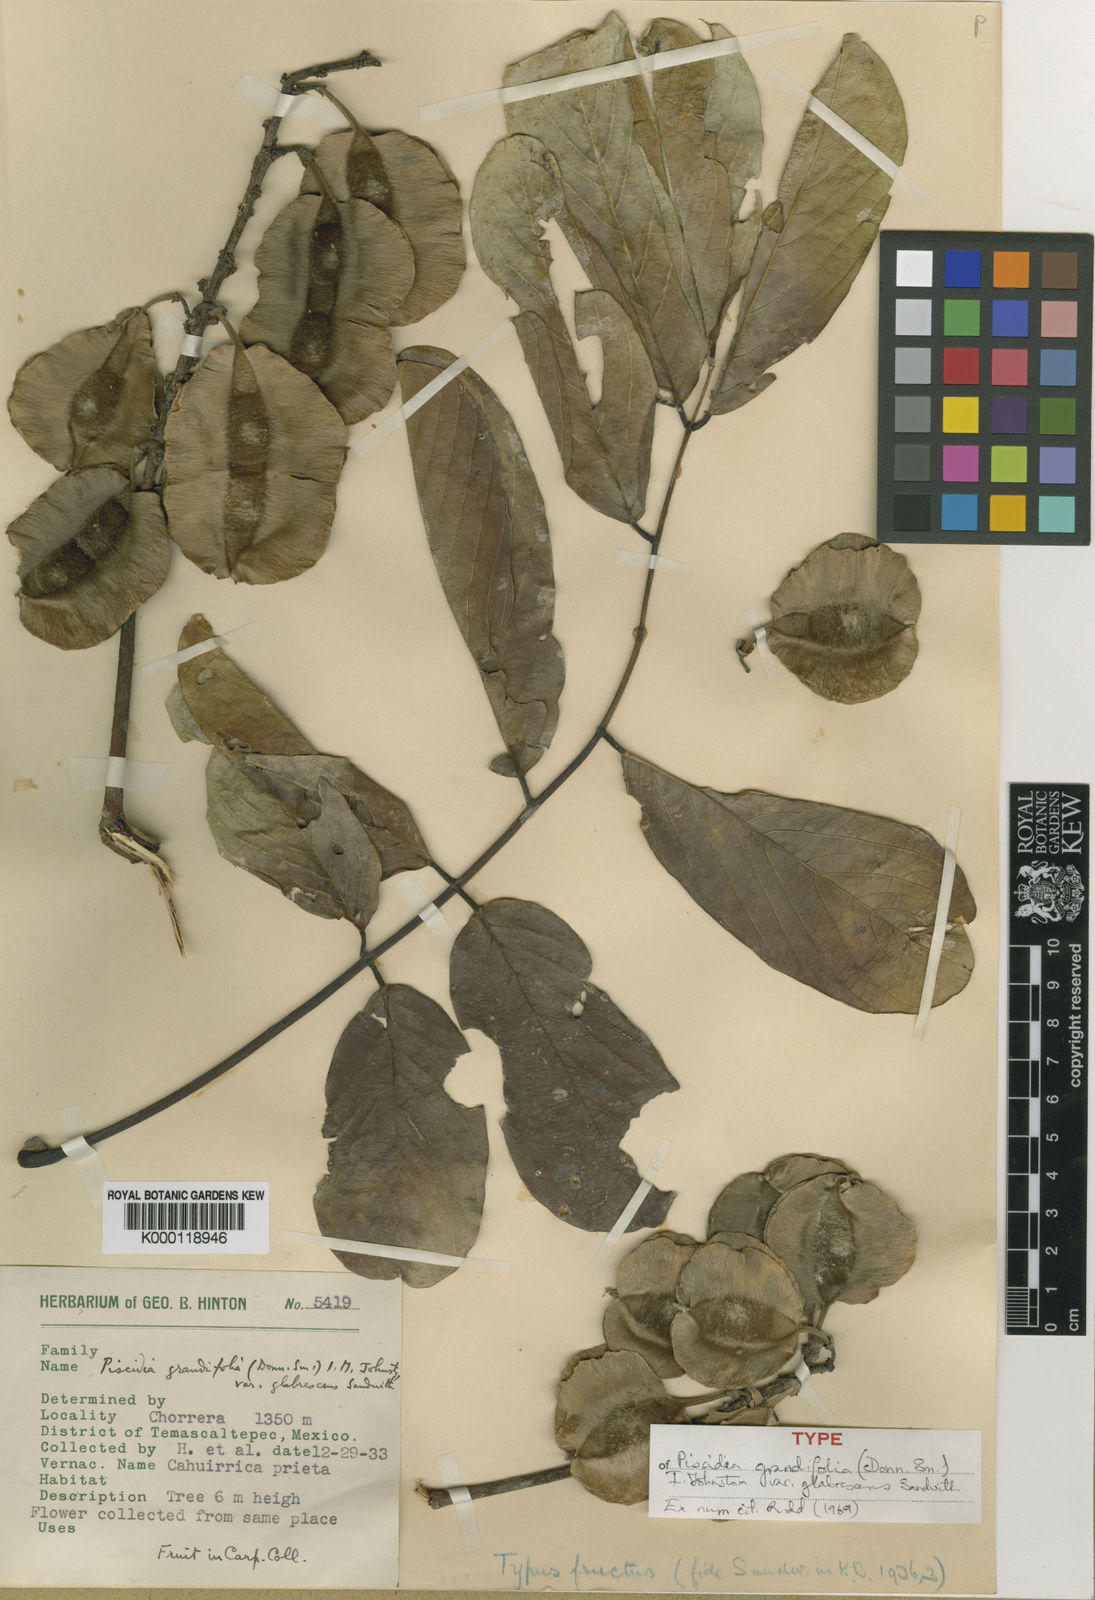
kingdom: Plantae
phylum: Tracheophyta
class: Magnoliopsida
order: Fabales
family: Fabaceae
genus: Piscidia
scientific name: Piscidia grandifolia
